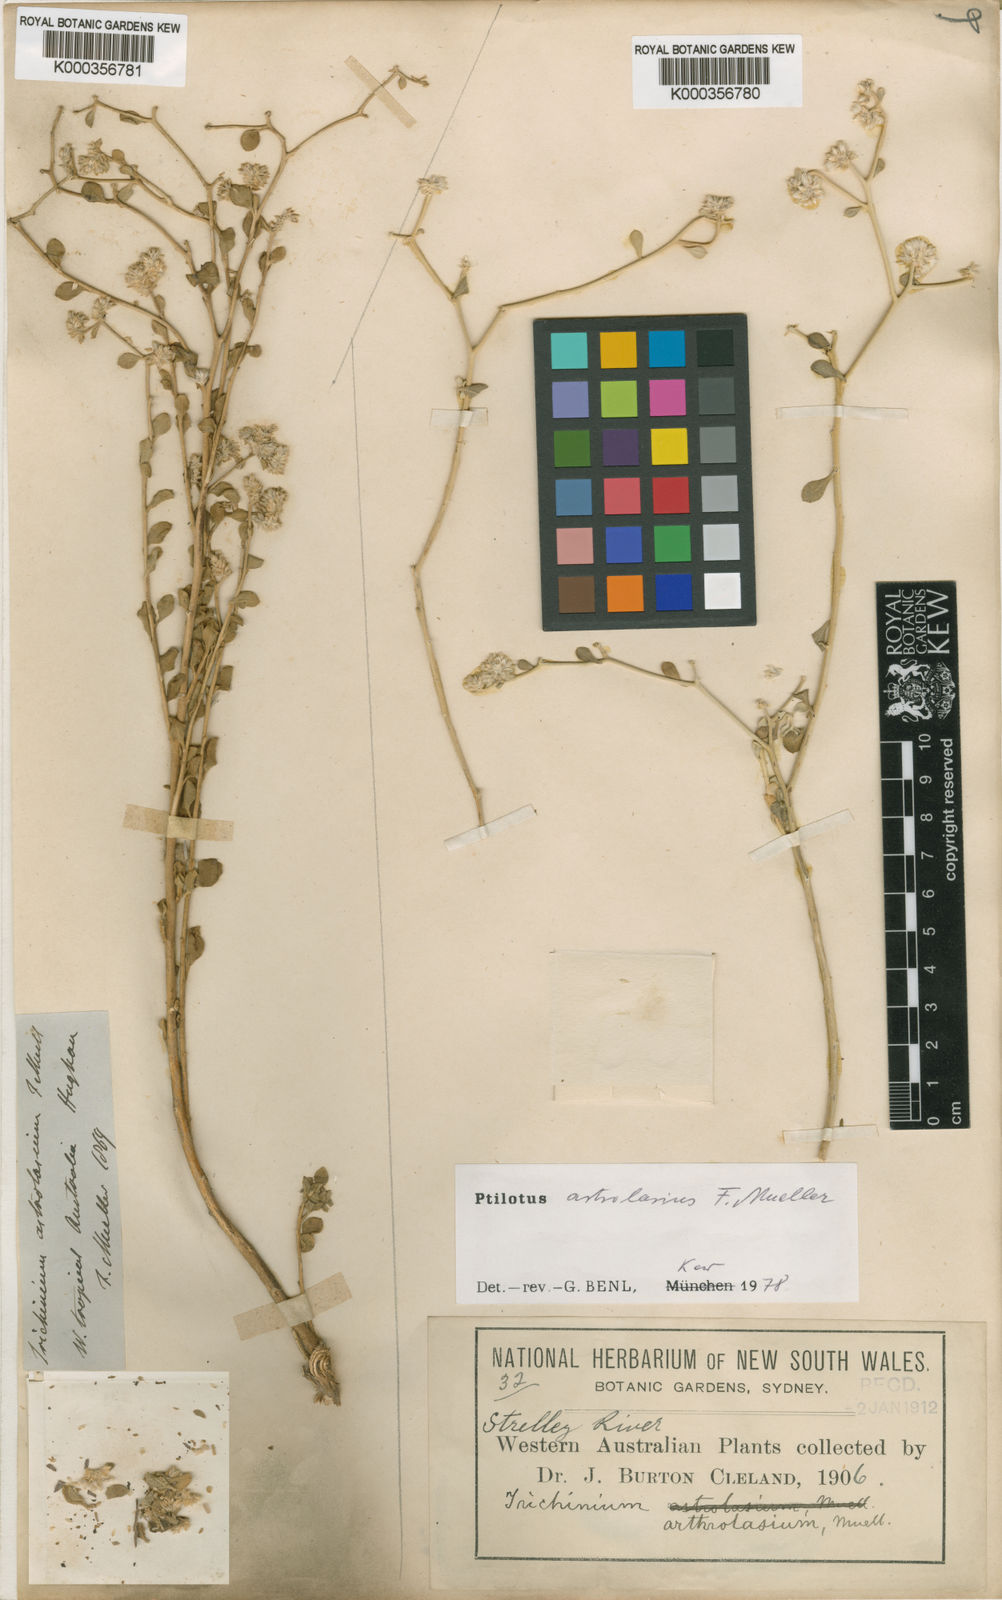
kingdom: Plantae
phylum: Tracheophyta
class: Magnoliopsida
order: Caryophyllales
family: Amaranthaceae
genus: Ptilotus
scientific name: Ptilotus arthrolasius
